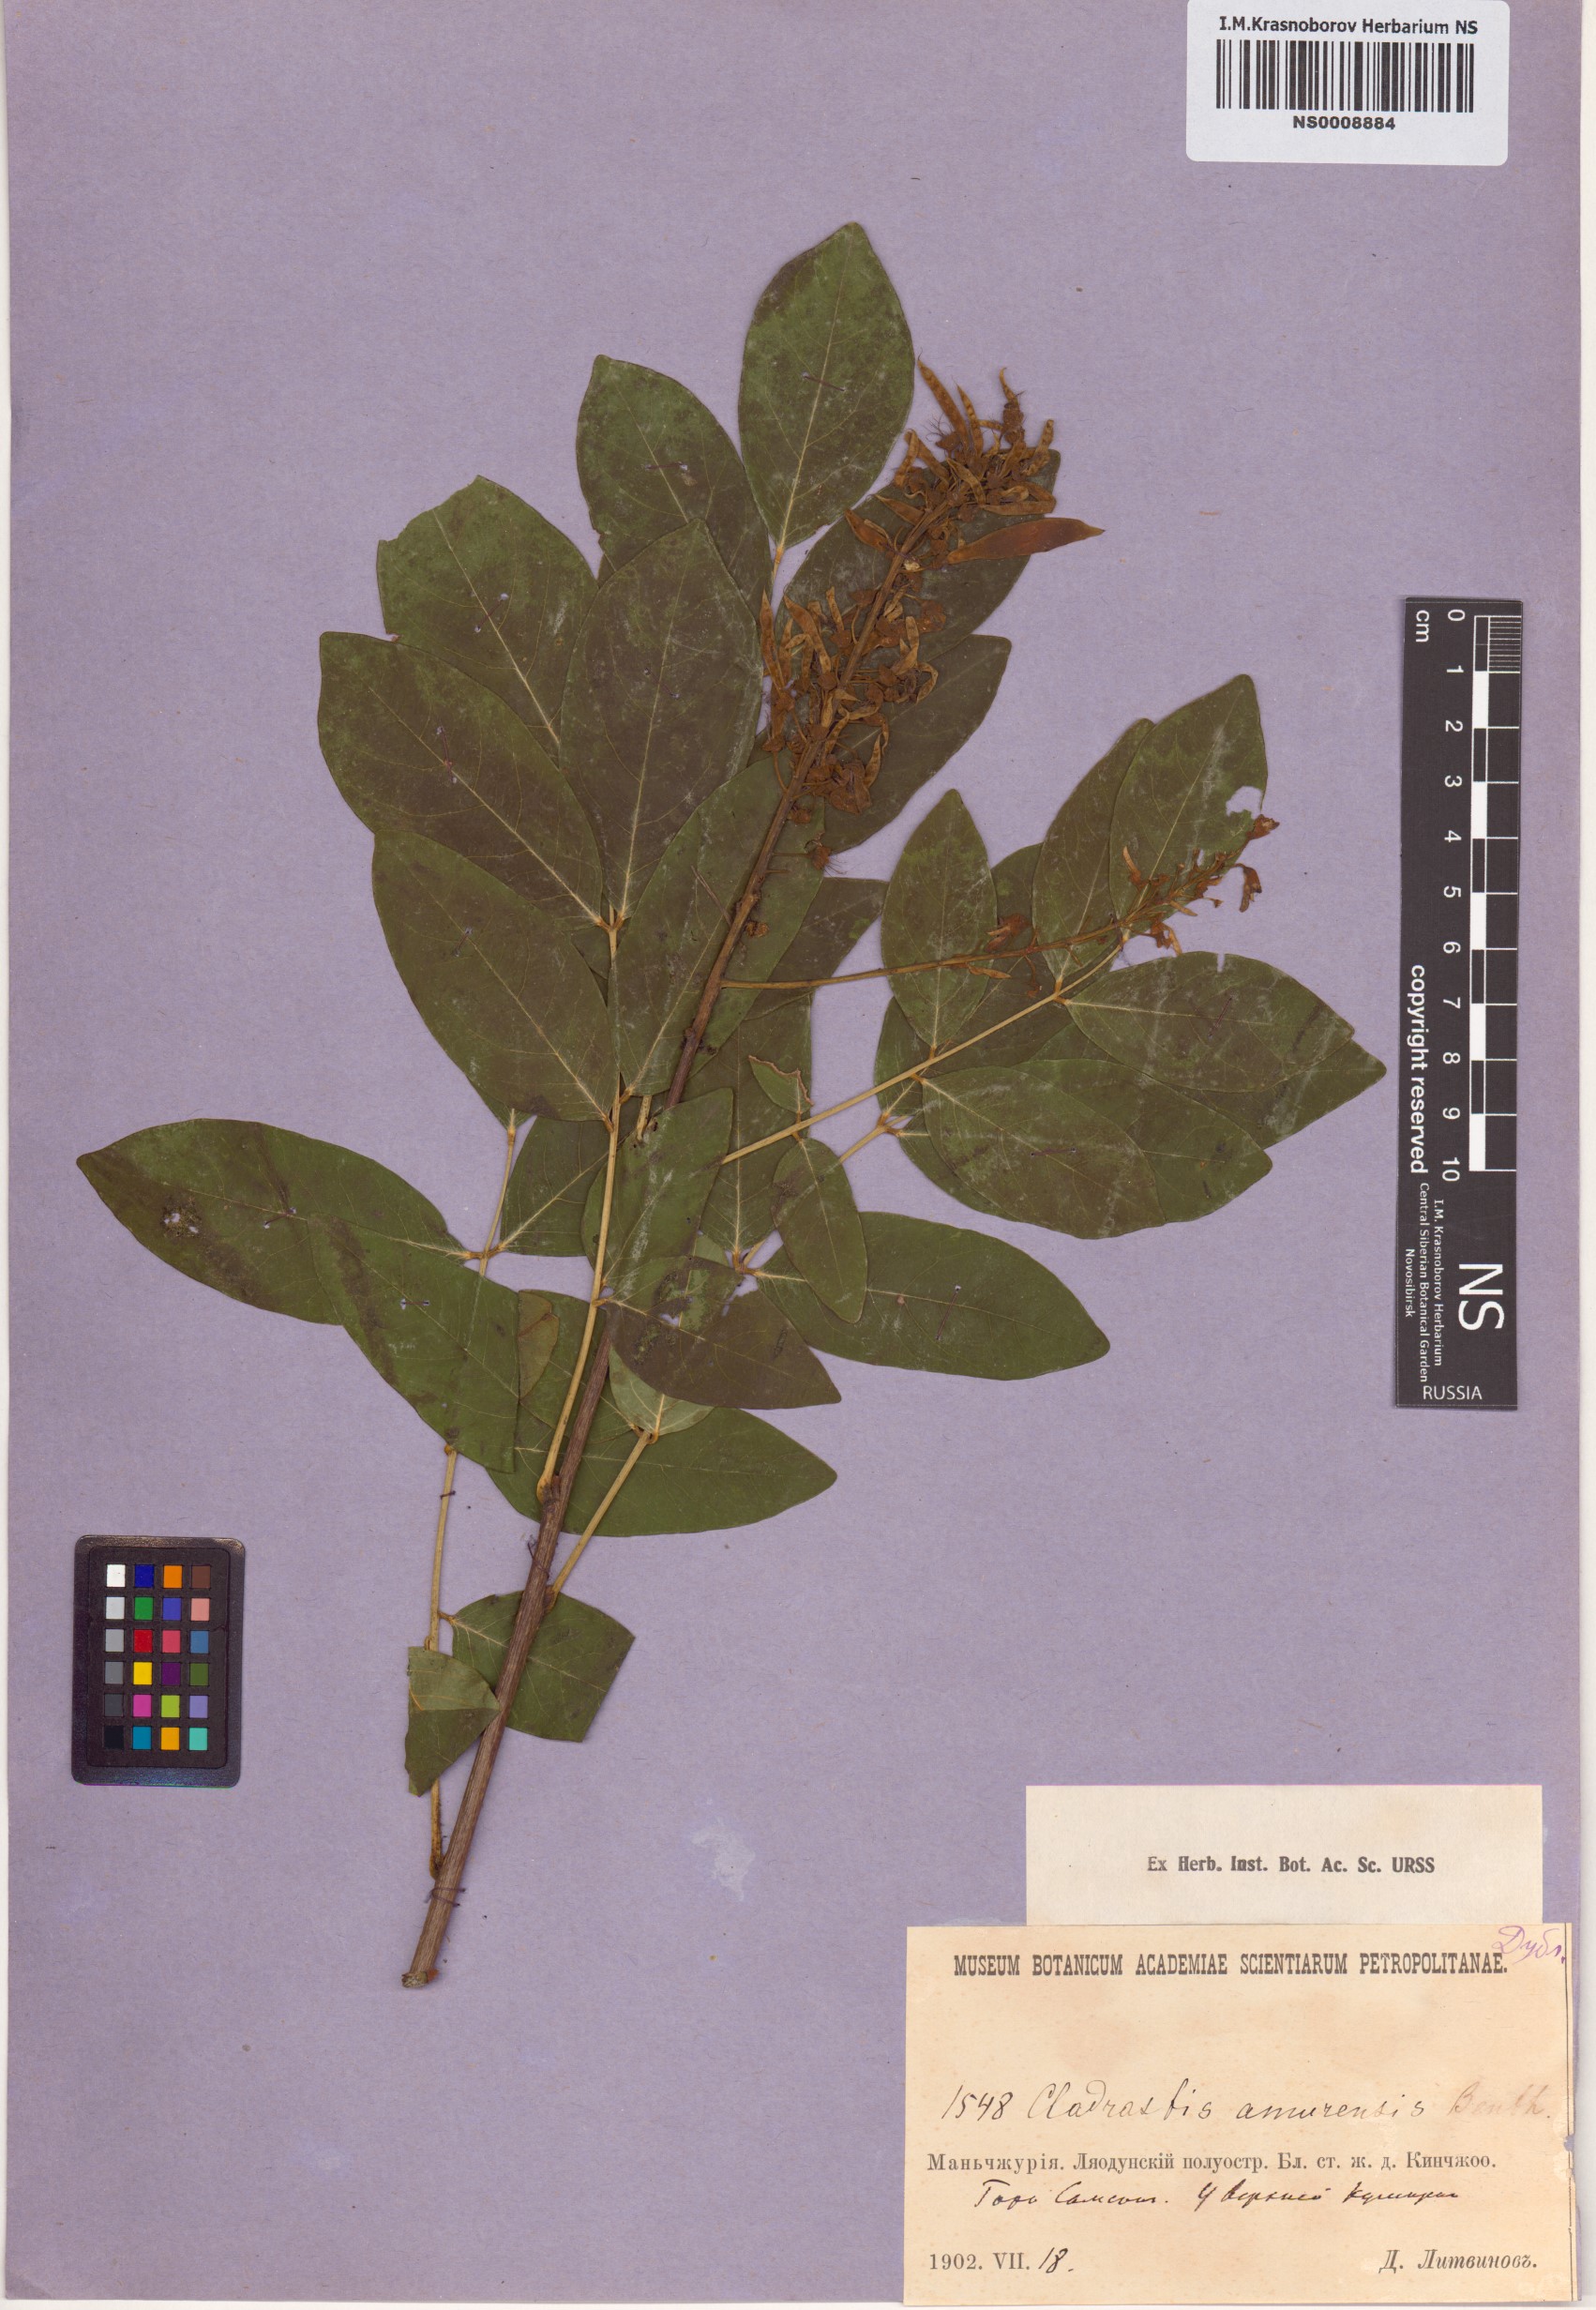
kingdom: Plantae
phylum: Tracheophyta
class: Magnoliopsida
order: Fabales
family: Fabaceae
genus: Maackia
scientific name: Maackia amurensis
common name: Amur maackia
